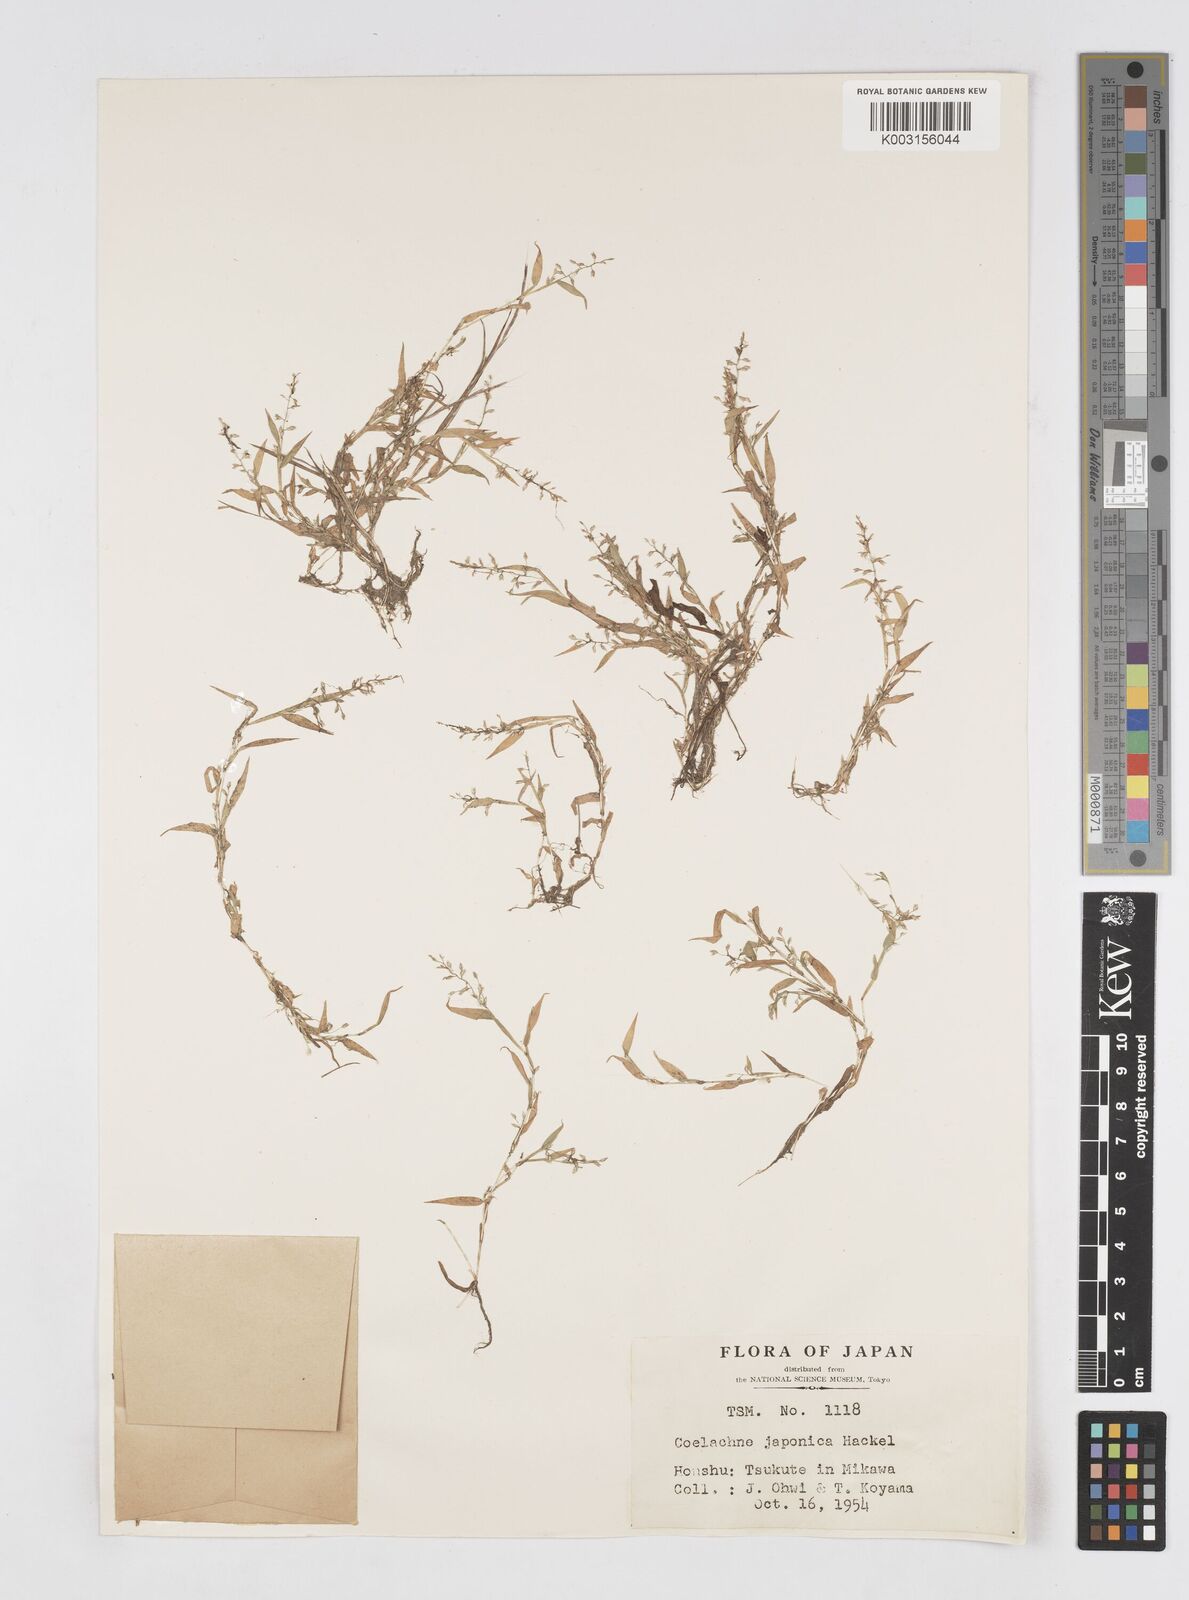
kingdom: Plantae
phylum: Tracheophyta
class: Liliopsida
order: Poales
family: Poaceae
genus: Coelachne
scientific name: Coelachne japonica
